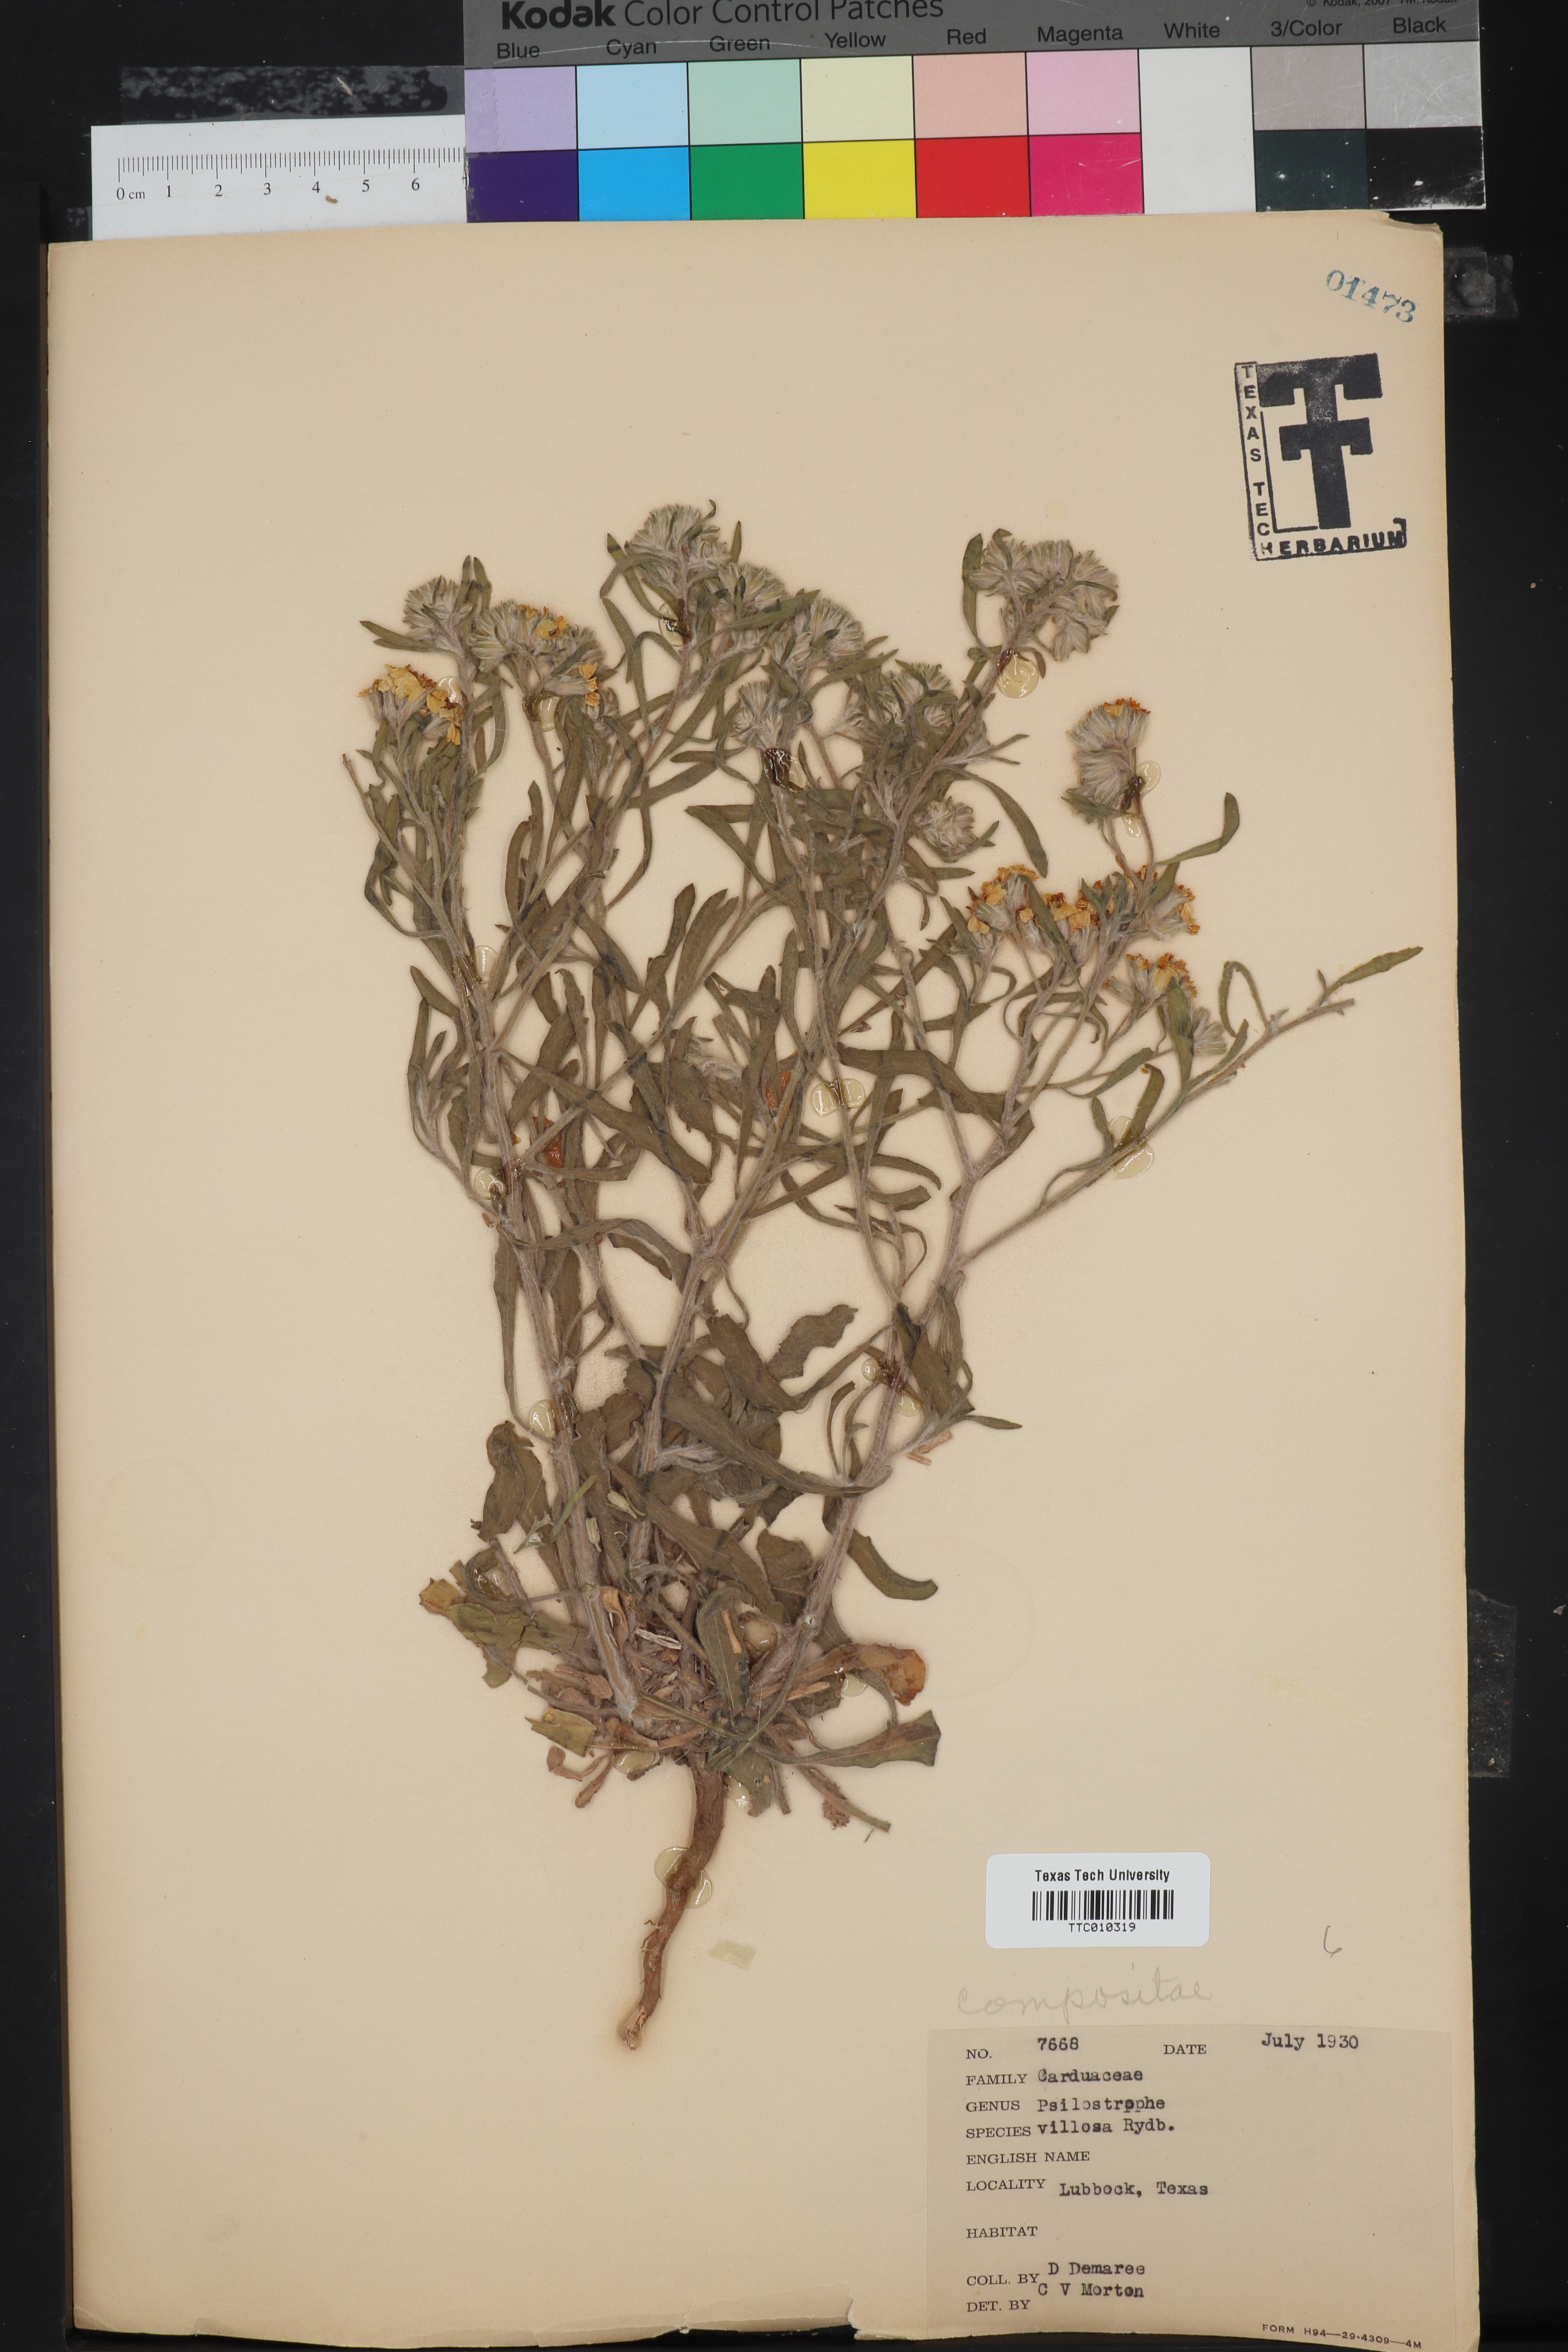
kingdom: Plantae
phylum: Tracheophyta
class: Magnoliopsida
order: Asterales
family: Asteraceae
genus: Psilostrophe
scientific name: Psilostrophe villosa
